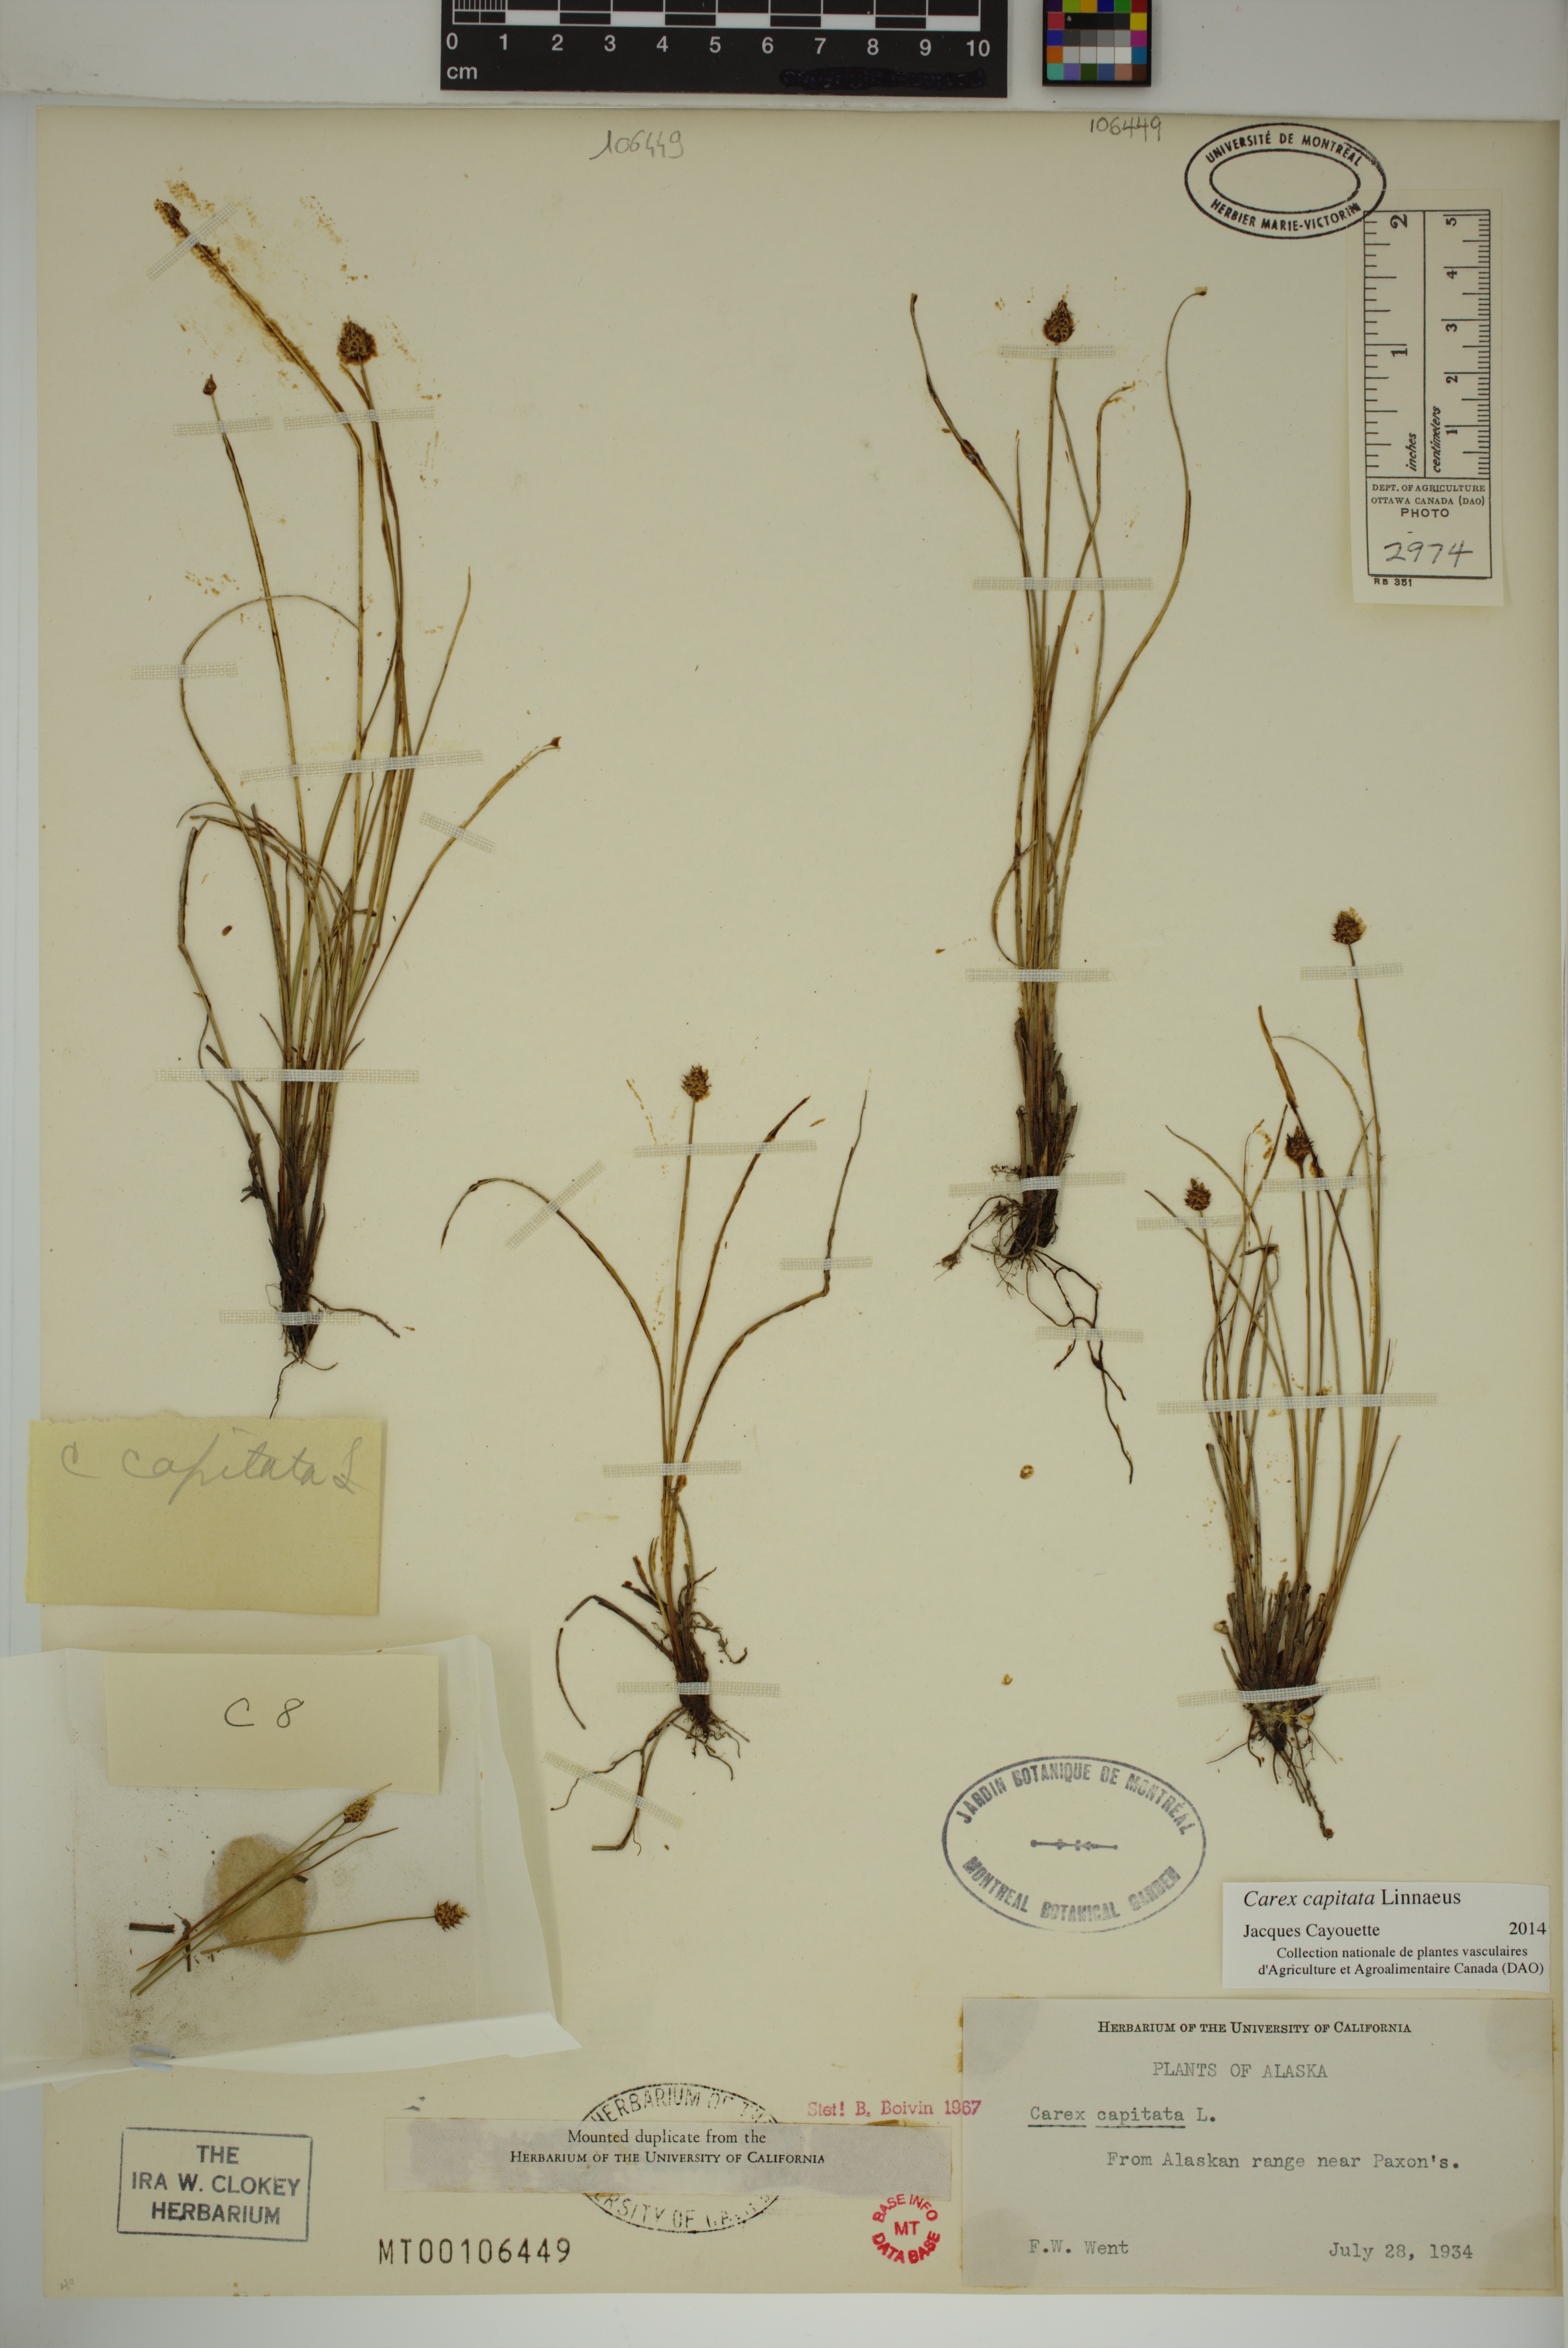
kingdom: Plantae
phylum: Tracheophyta
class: Liliopsida
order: Poales
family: Cyperaceae
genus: Carex
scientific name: Carex capitata
